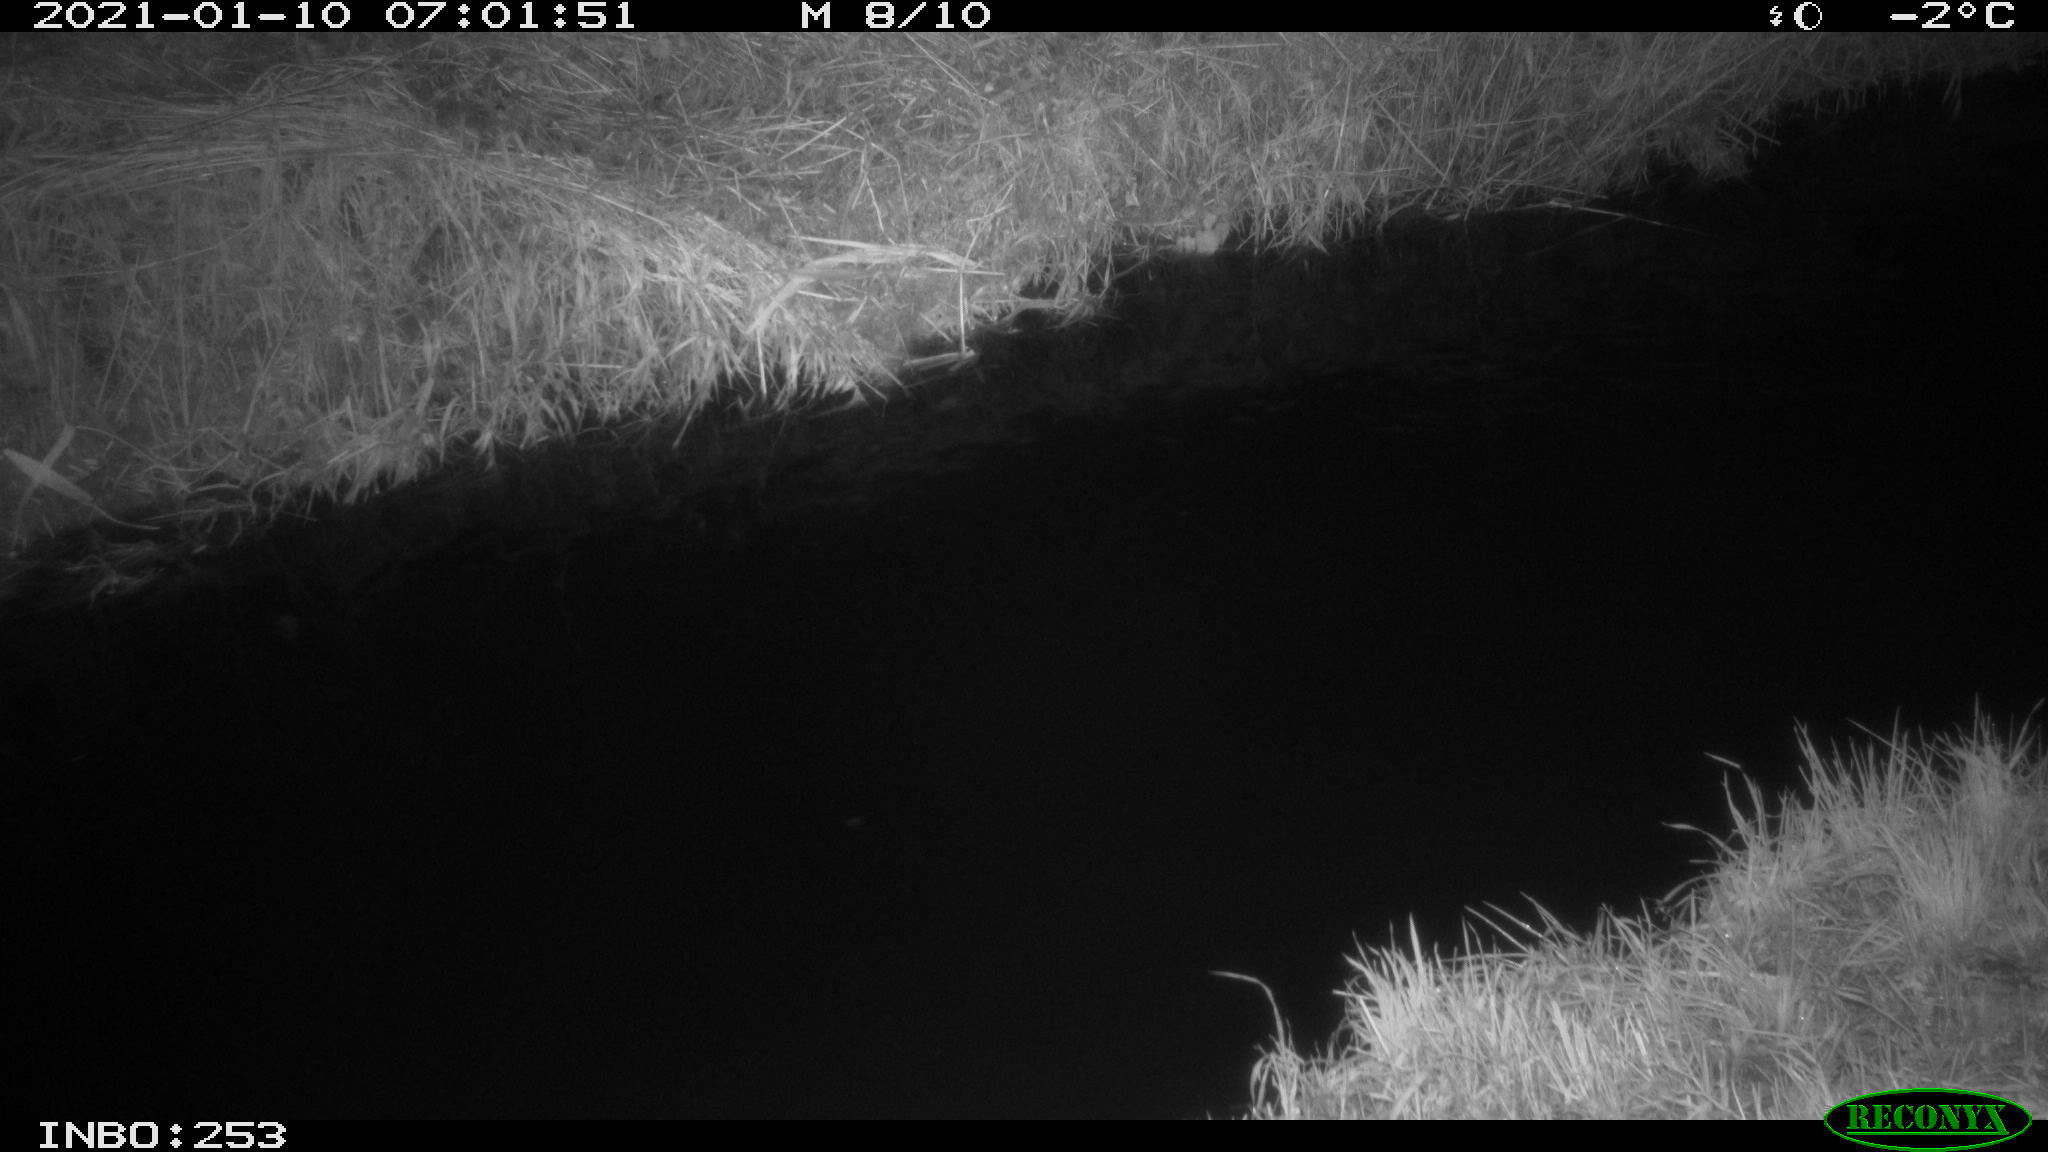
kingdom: Animalia
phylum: Chordata
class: Aves
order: Anseriformes
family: Anatidae
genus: Anas
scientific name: Anas platyrhynchos
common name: Mallard
